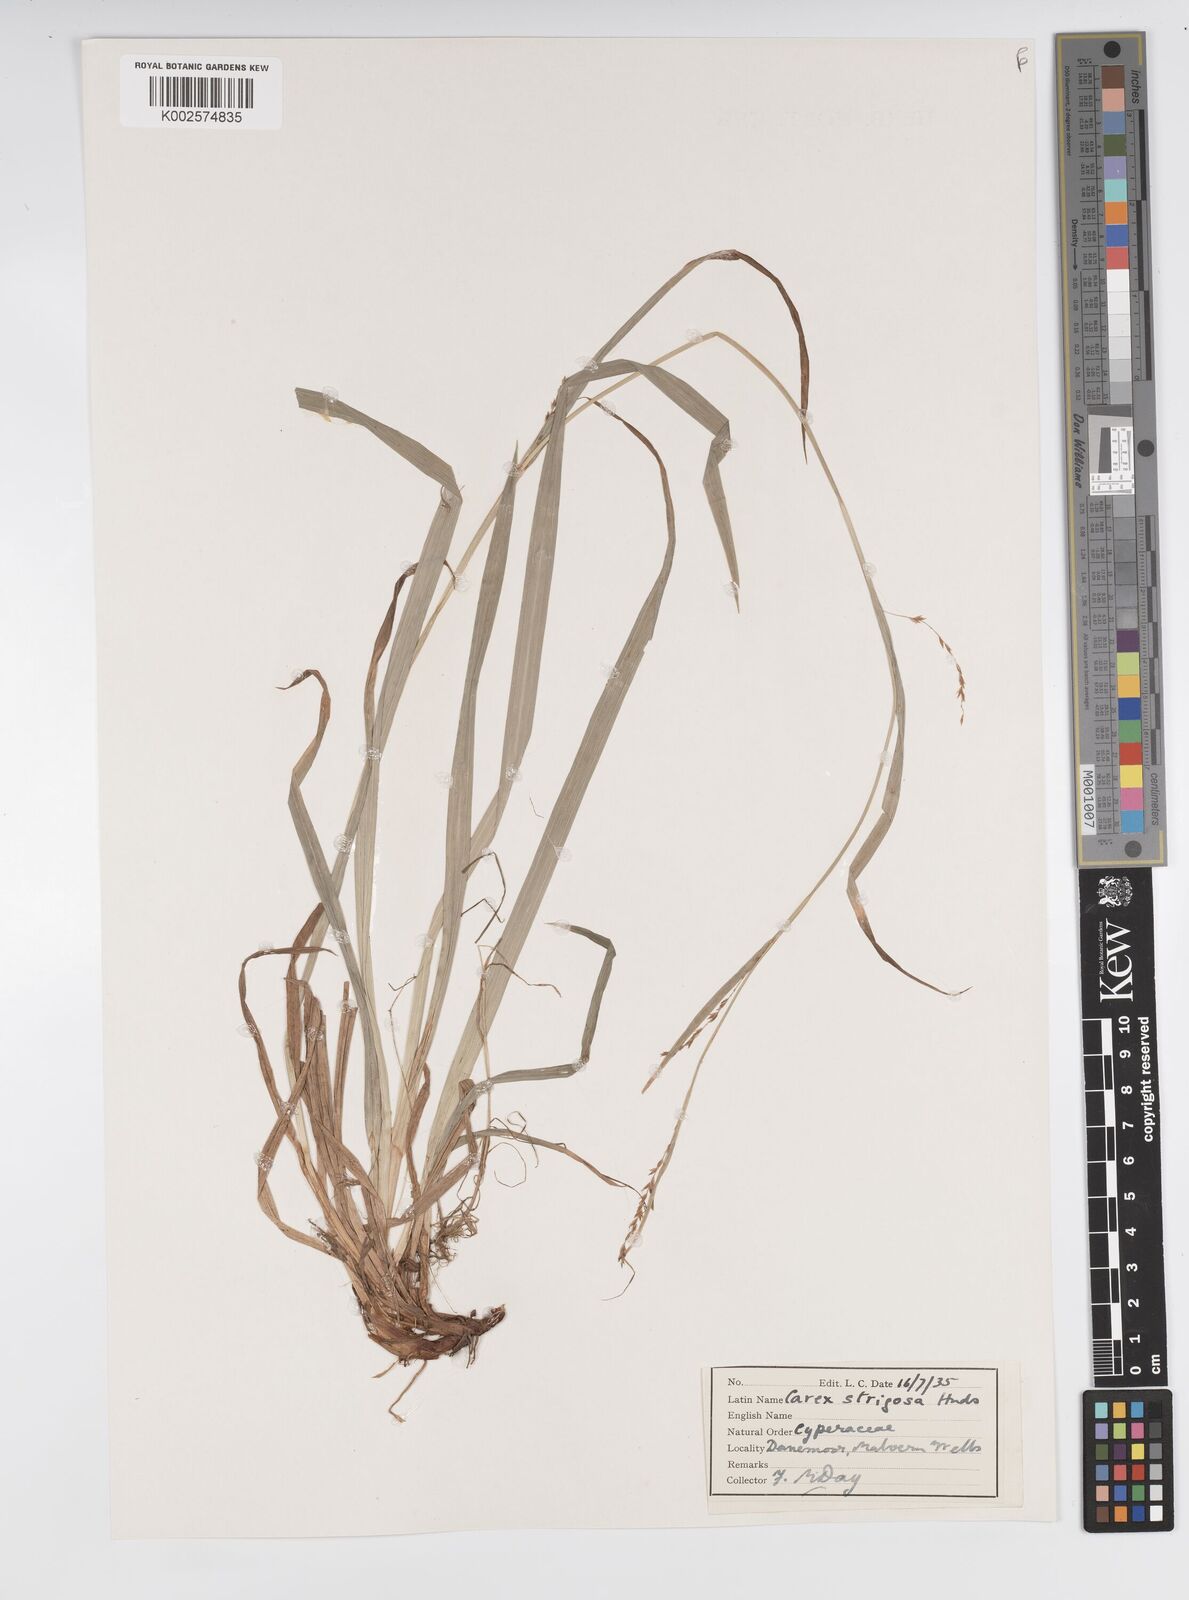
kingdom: Plantae
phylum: Tracheophyta
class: Liliopsida
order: Poales
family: Cyperaceae
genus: Carex
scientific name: Carex strigosa
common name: Thin-spiked wood-sedge
